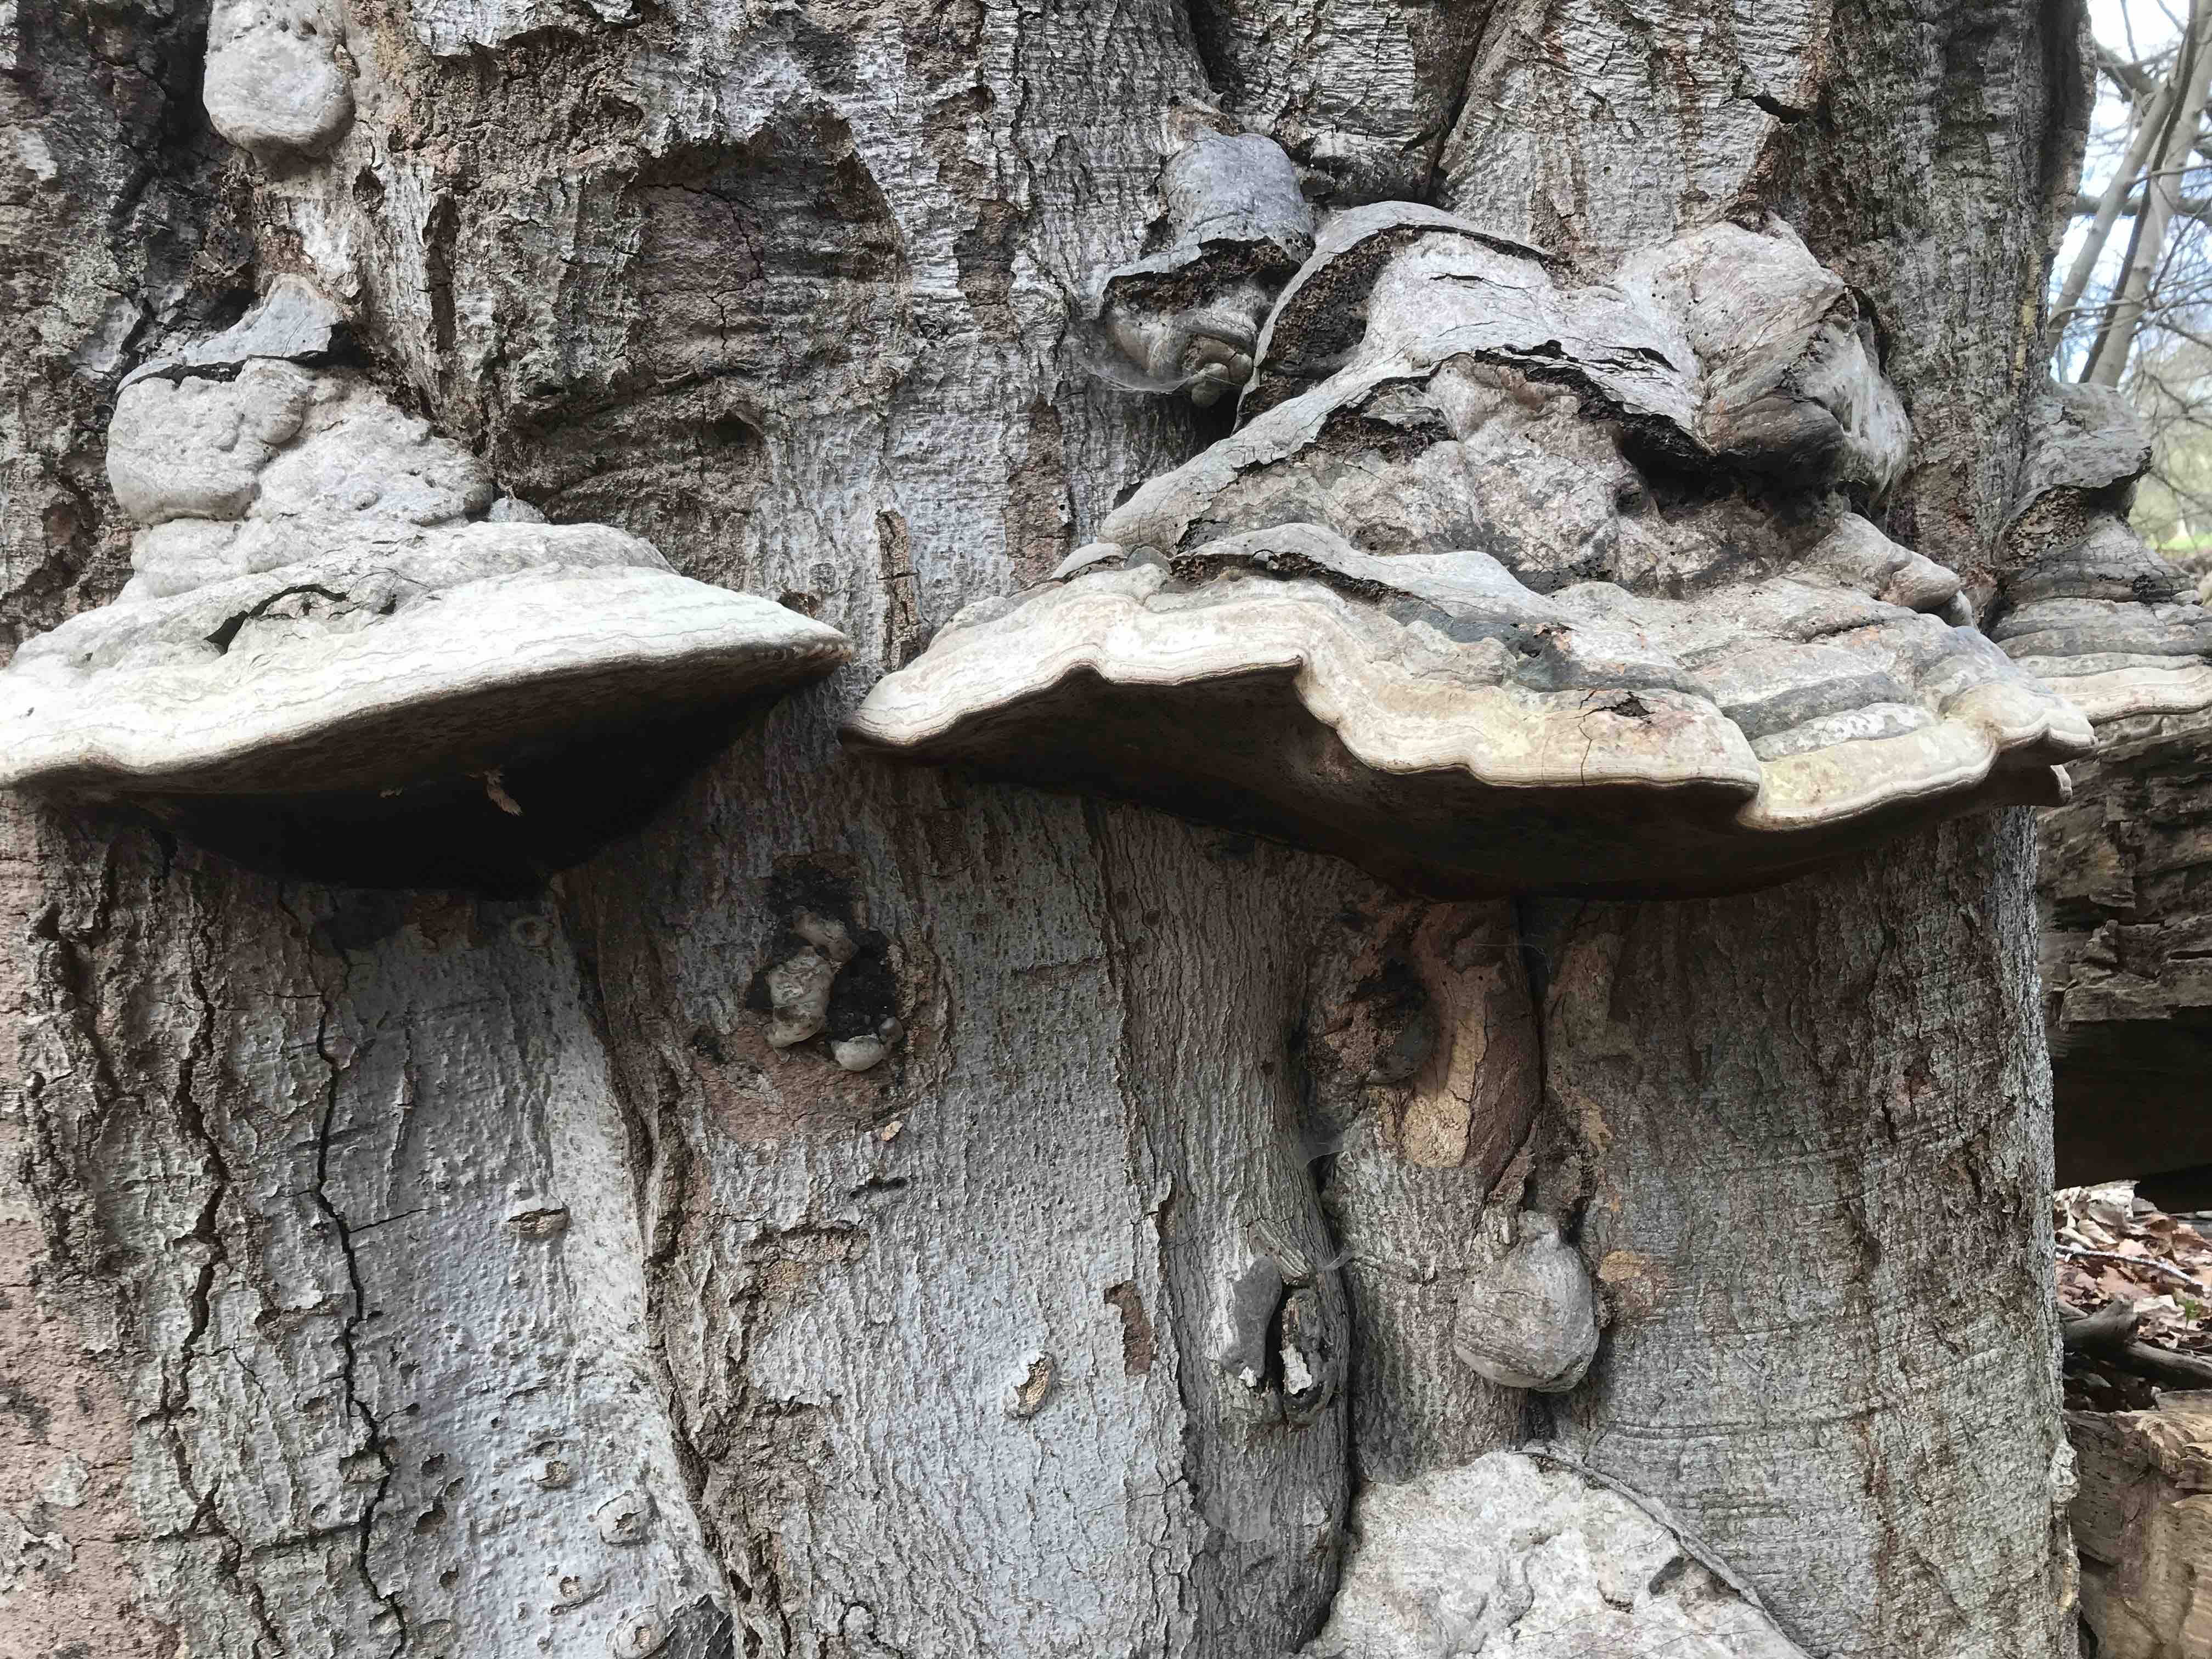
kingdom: Fungi
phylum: Basidiomycota
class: Agaricomycetes
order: Polyporales
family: Polyporaceae
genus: Fomes
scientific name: Fomes fomentarius
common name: tøndersvamp
